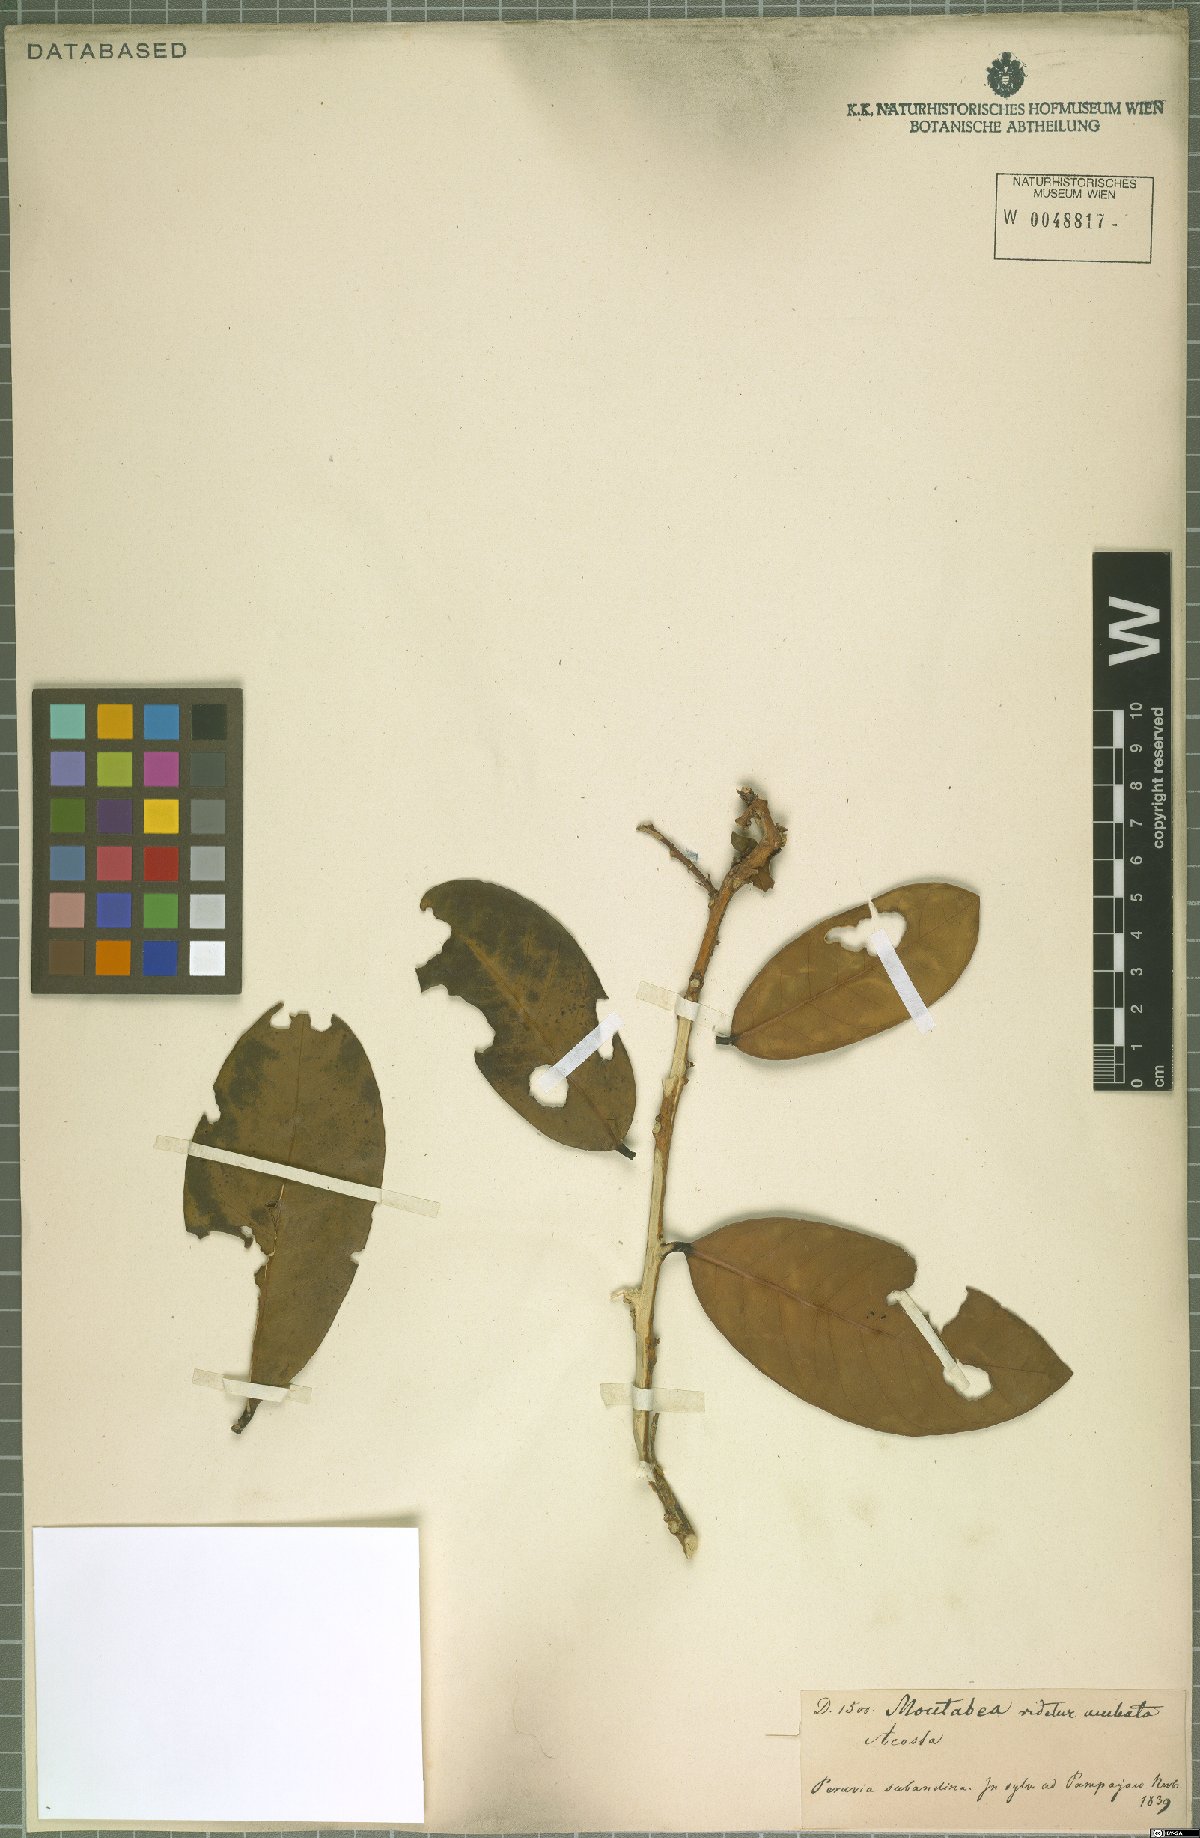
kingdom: Plantae
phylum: Tracheophyta
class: Magnoliopsida
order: Fabales
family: Polygalaceae
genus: Moutabea
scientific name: Moutabea aculeata
